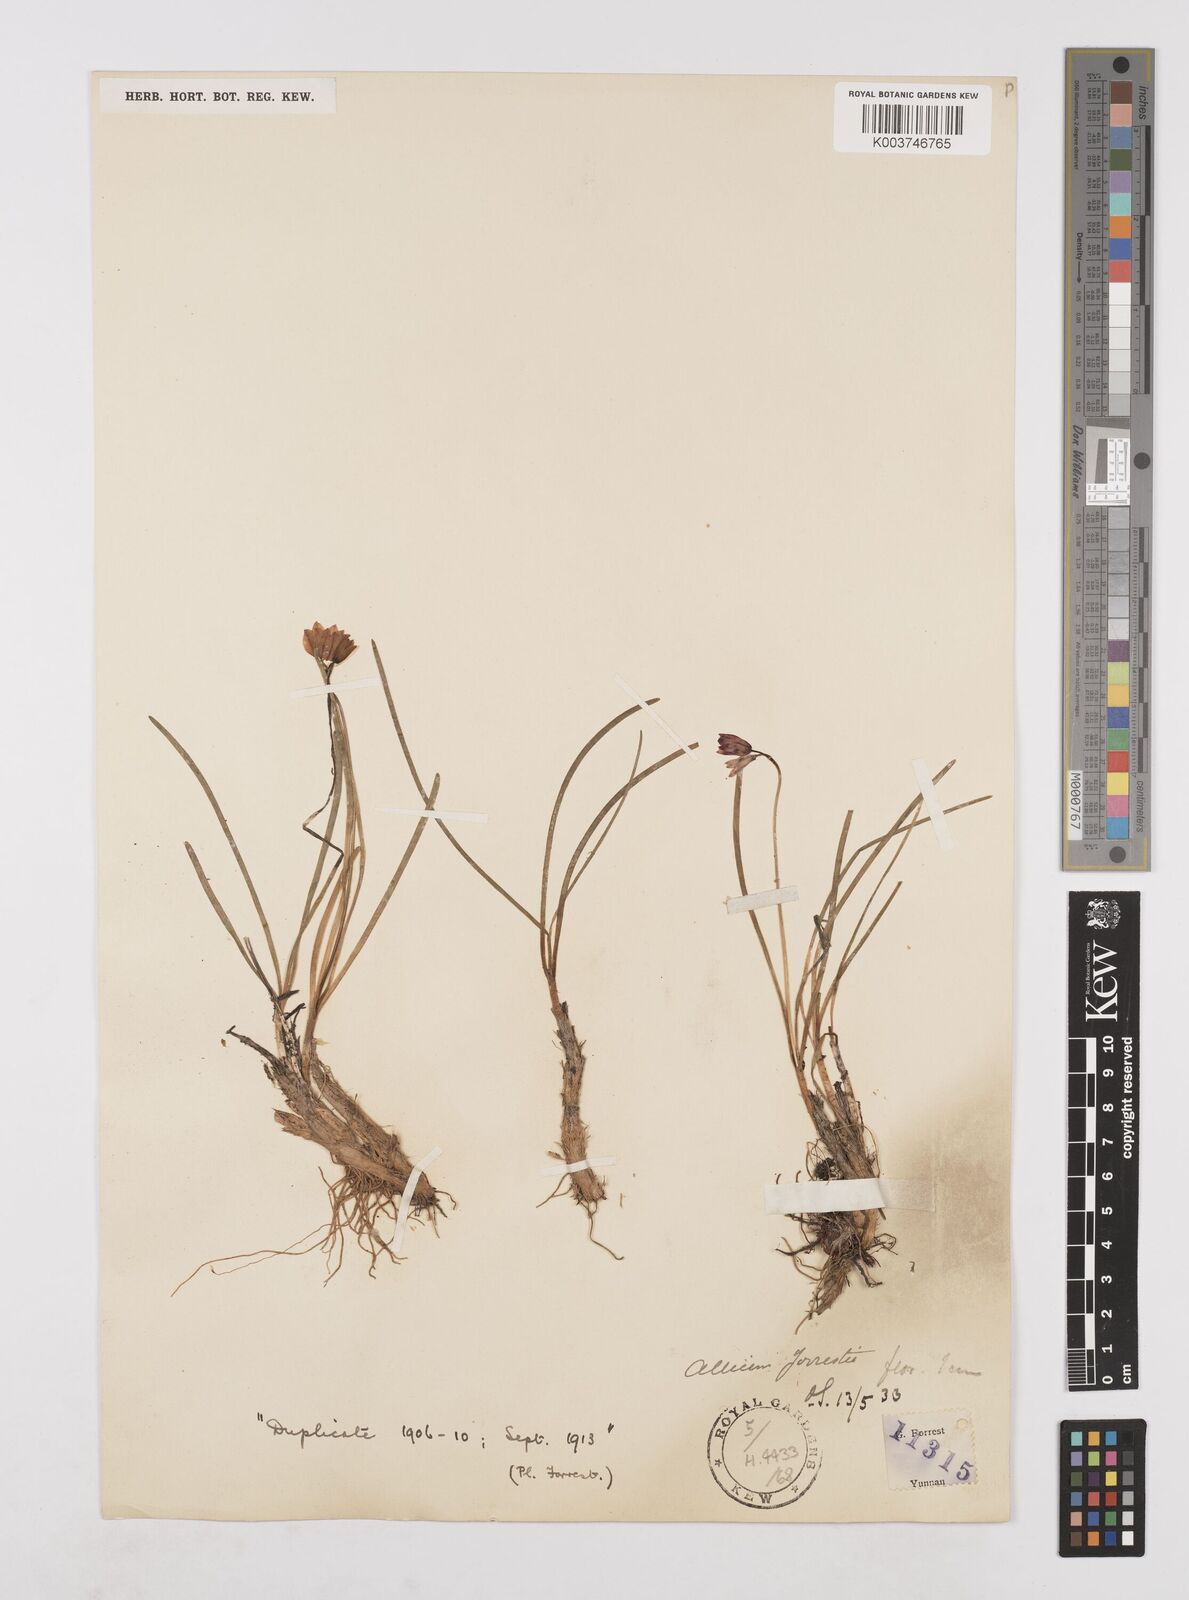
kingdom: Plantae
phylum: Tracheophyta
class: Liliopsida
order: Asparagales
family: Amaryllidaceae
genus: Allium
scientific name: Allium forrestii
